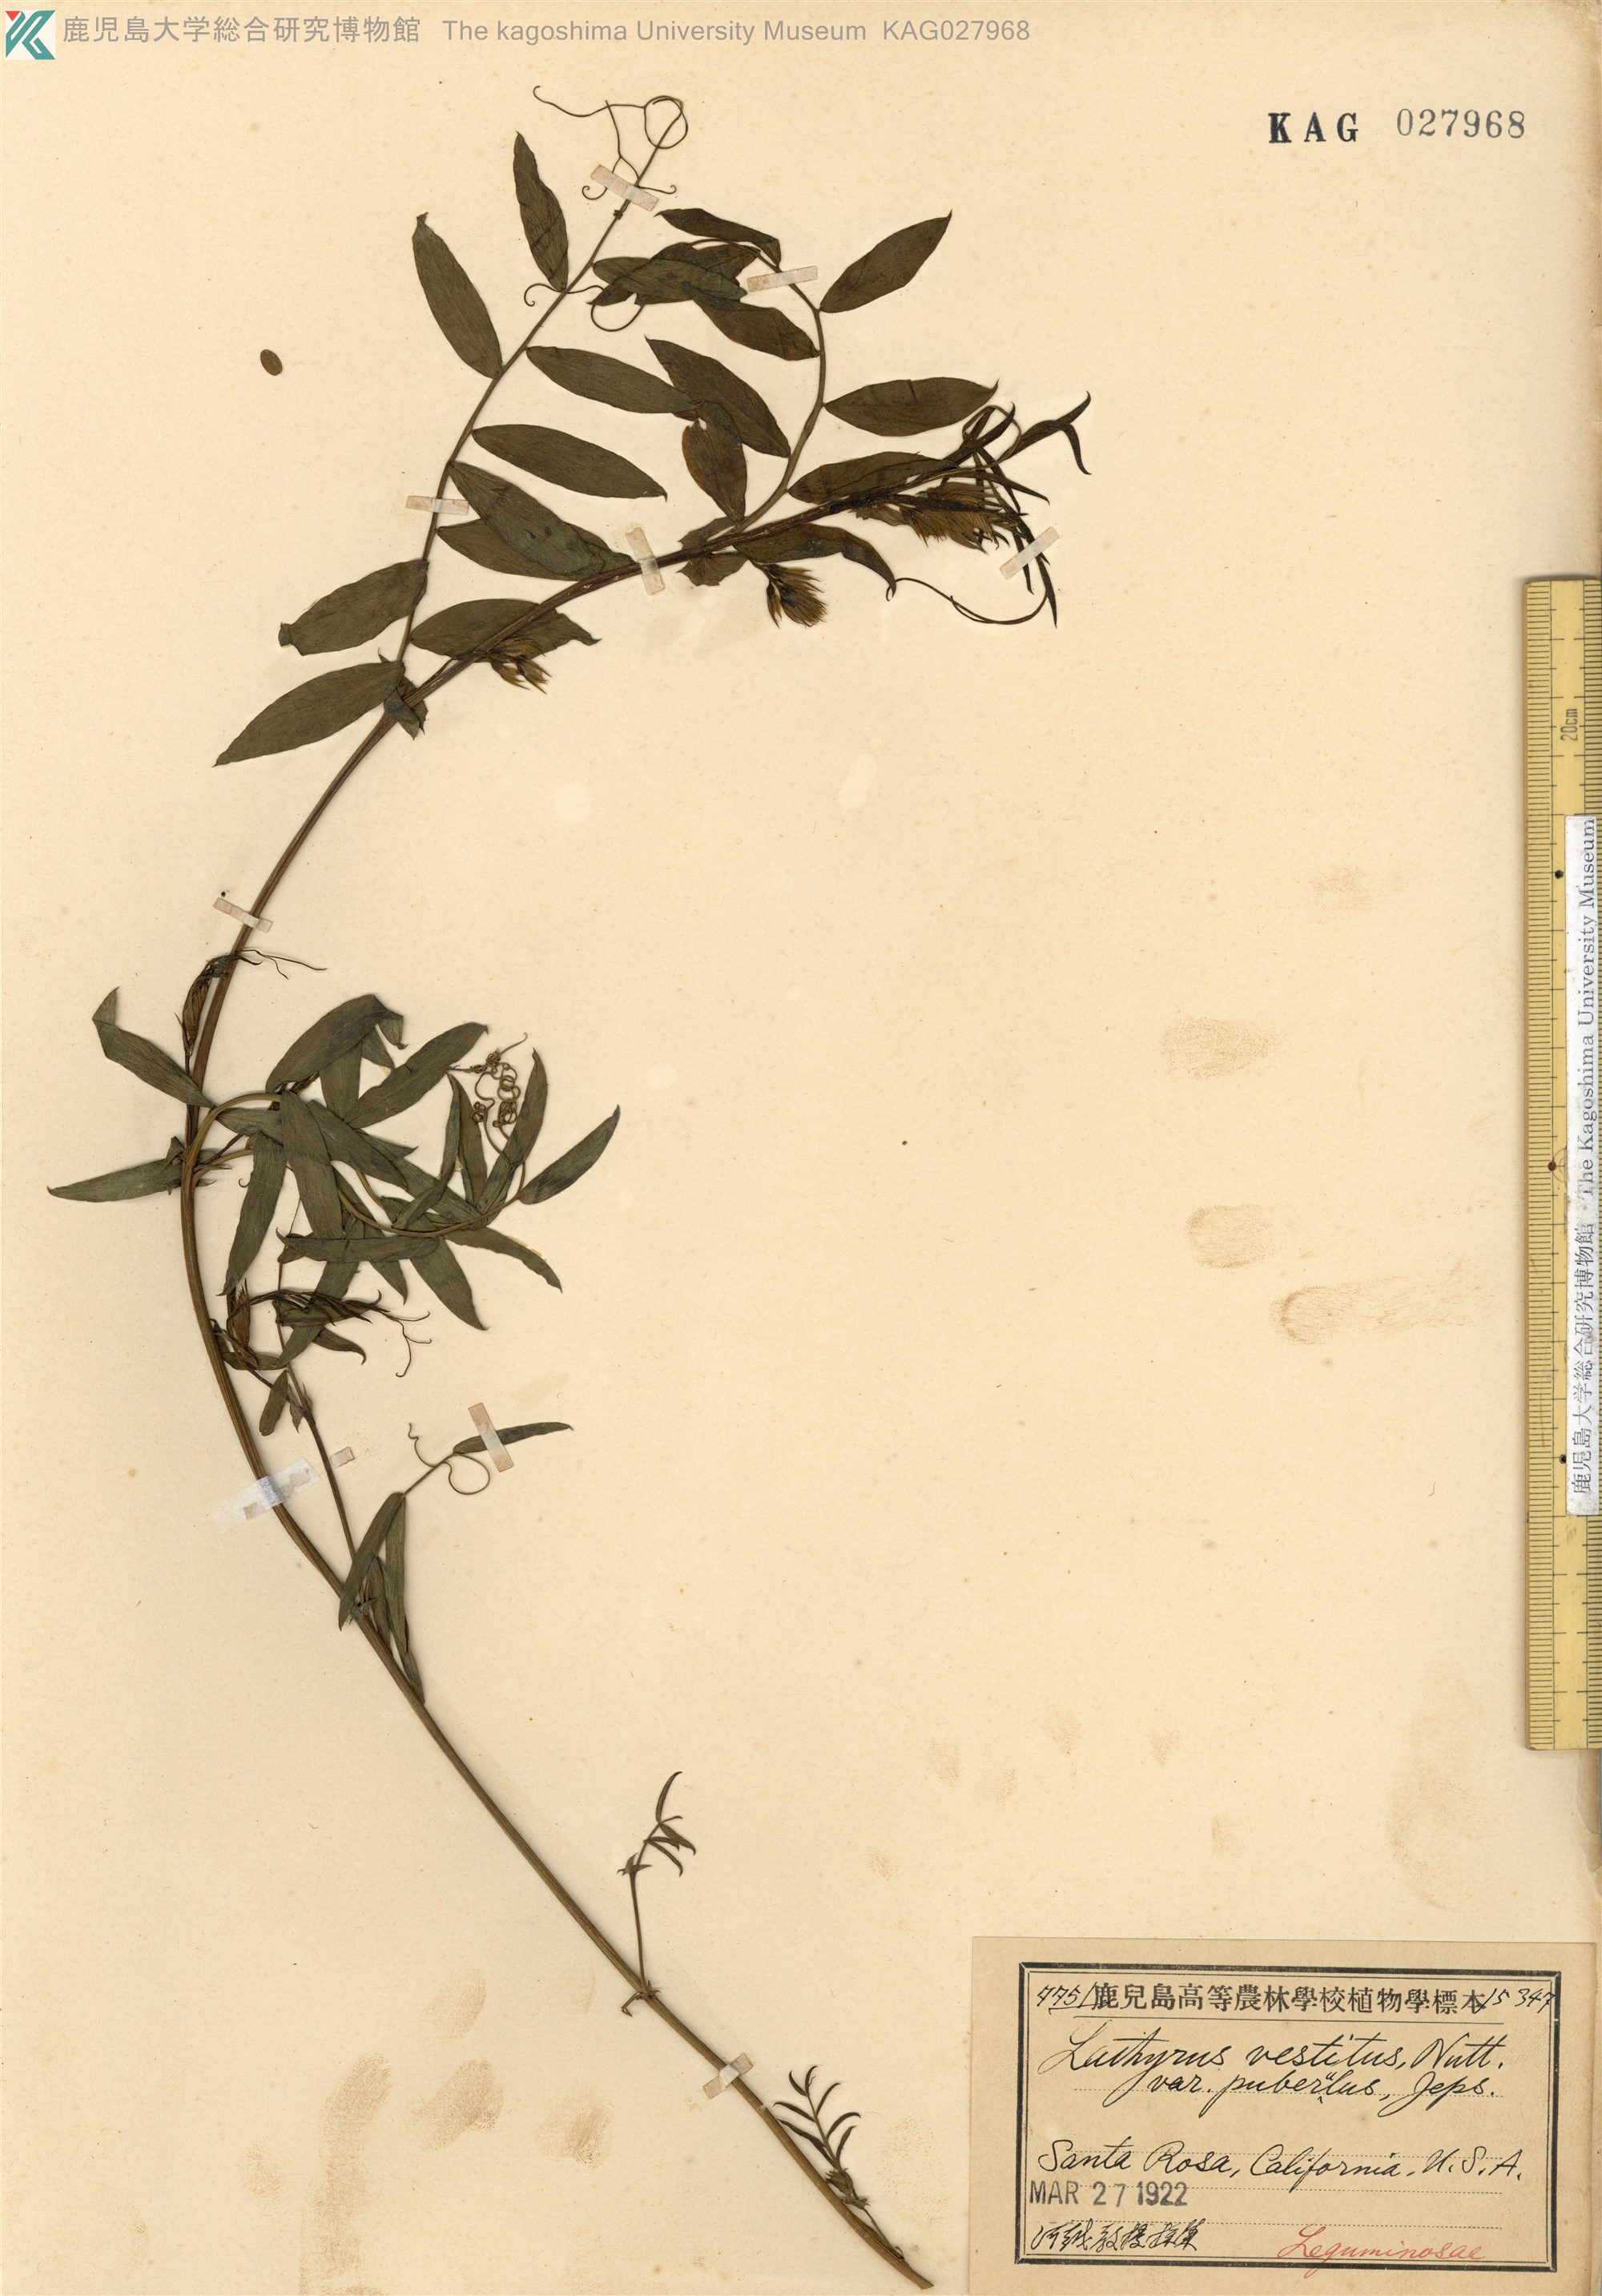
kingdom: Plantae
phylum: Tracheophyta
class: Magnoliopsida
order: Fabales
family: Fabaceae
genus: Lathyrus
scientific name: Lathyrus vestitus
